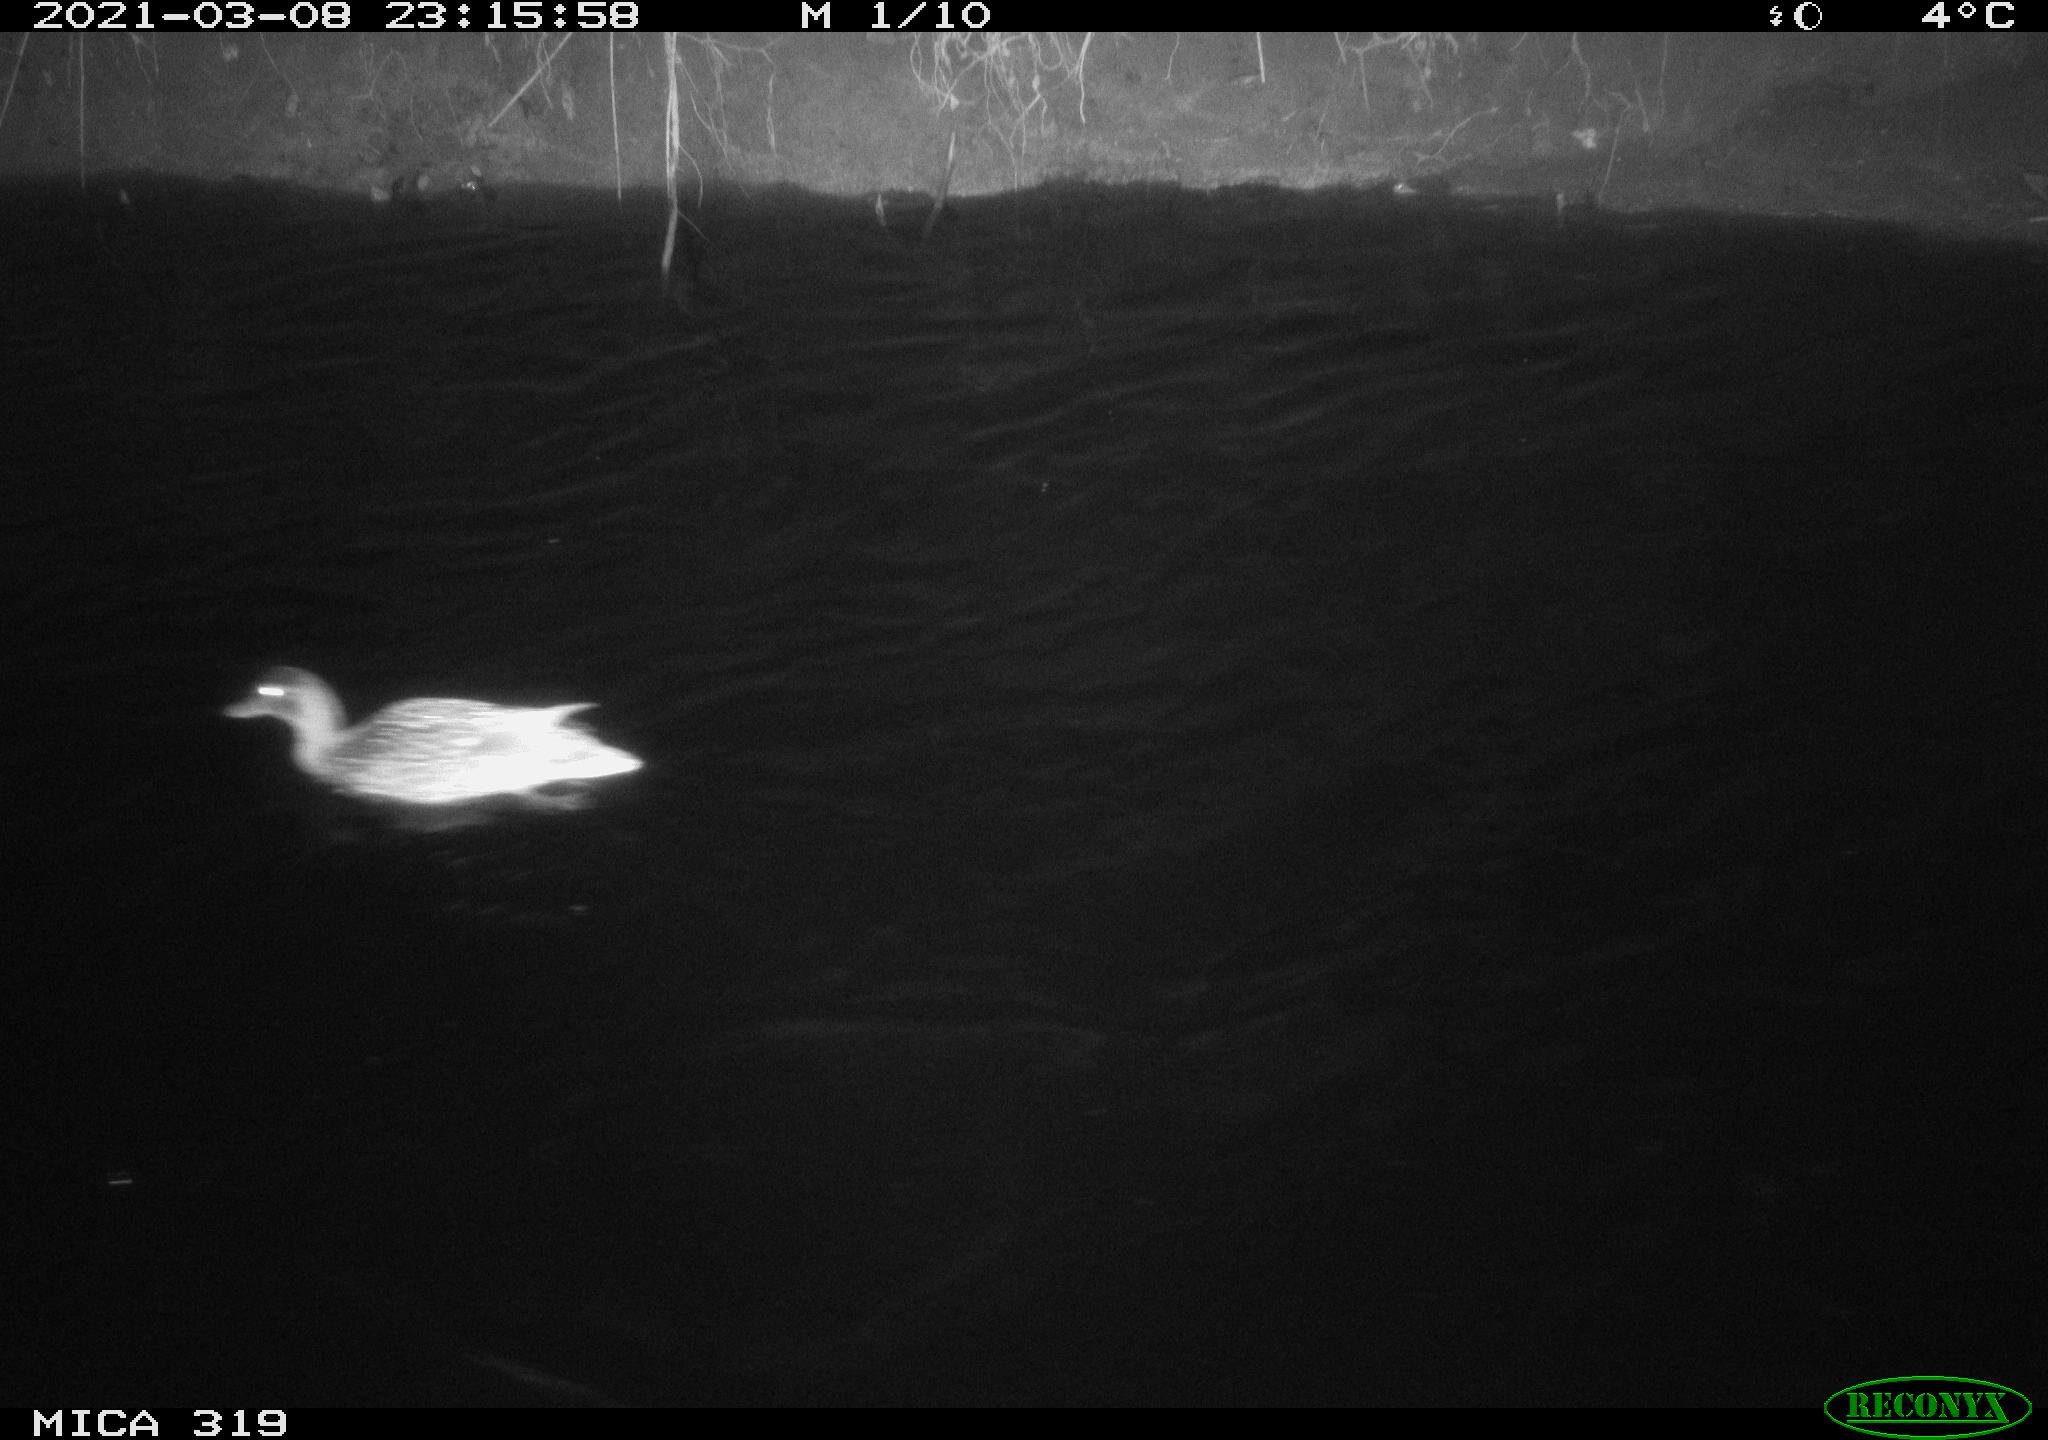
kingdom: Animalia
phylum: Chordata
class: Aves
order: Anseriformes
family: Anatidae
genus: Anas
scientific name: Anas platyrhynchos
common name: Mallard
